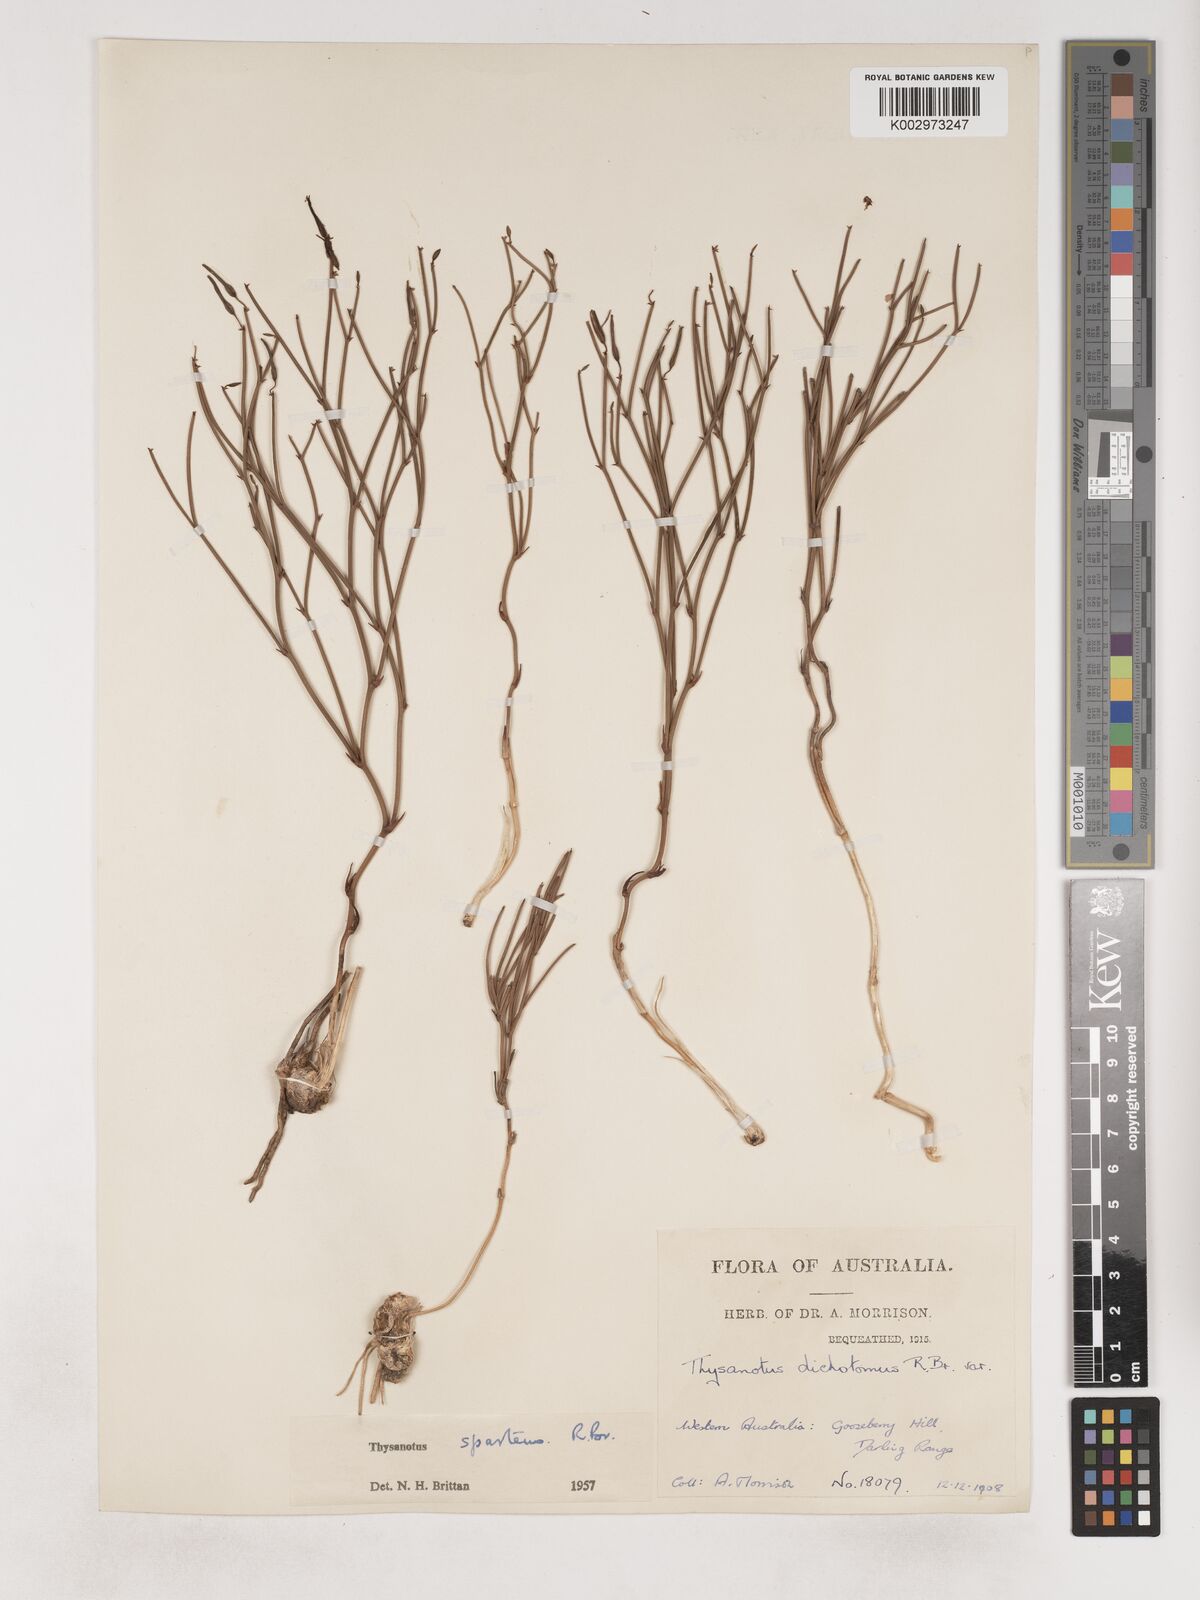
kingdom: Plantae
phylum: Tracheophyta
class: Liliopsida
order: Asparagales
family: Asparagaceae
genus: Thysanotus
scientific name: Thysanotus sparteus
